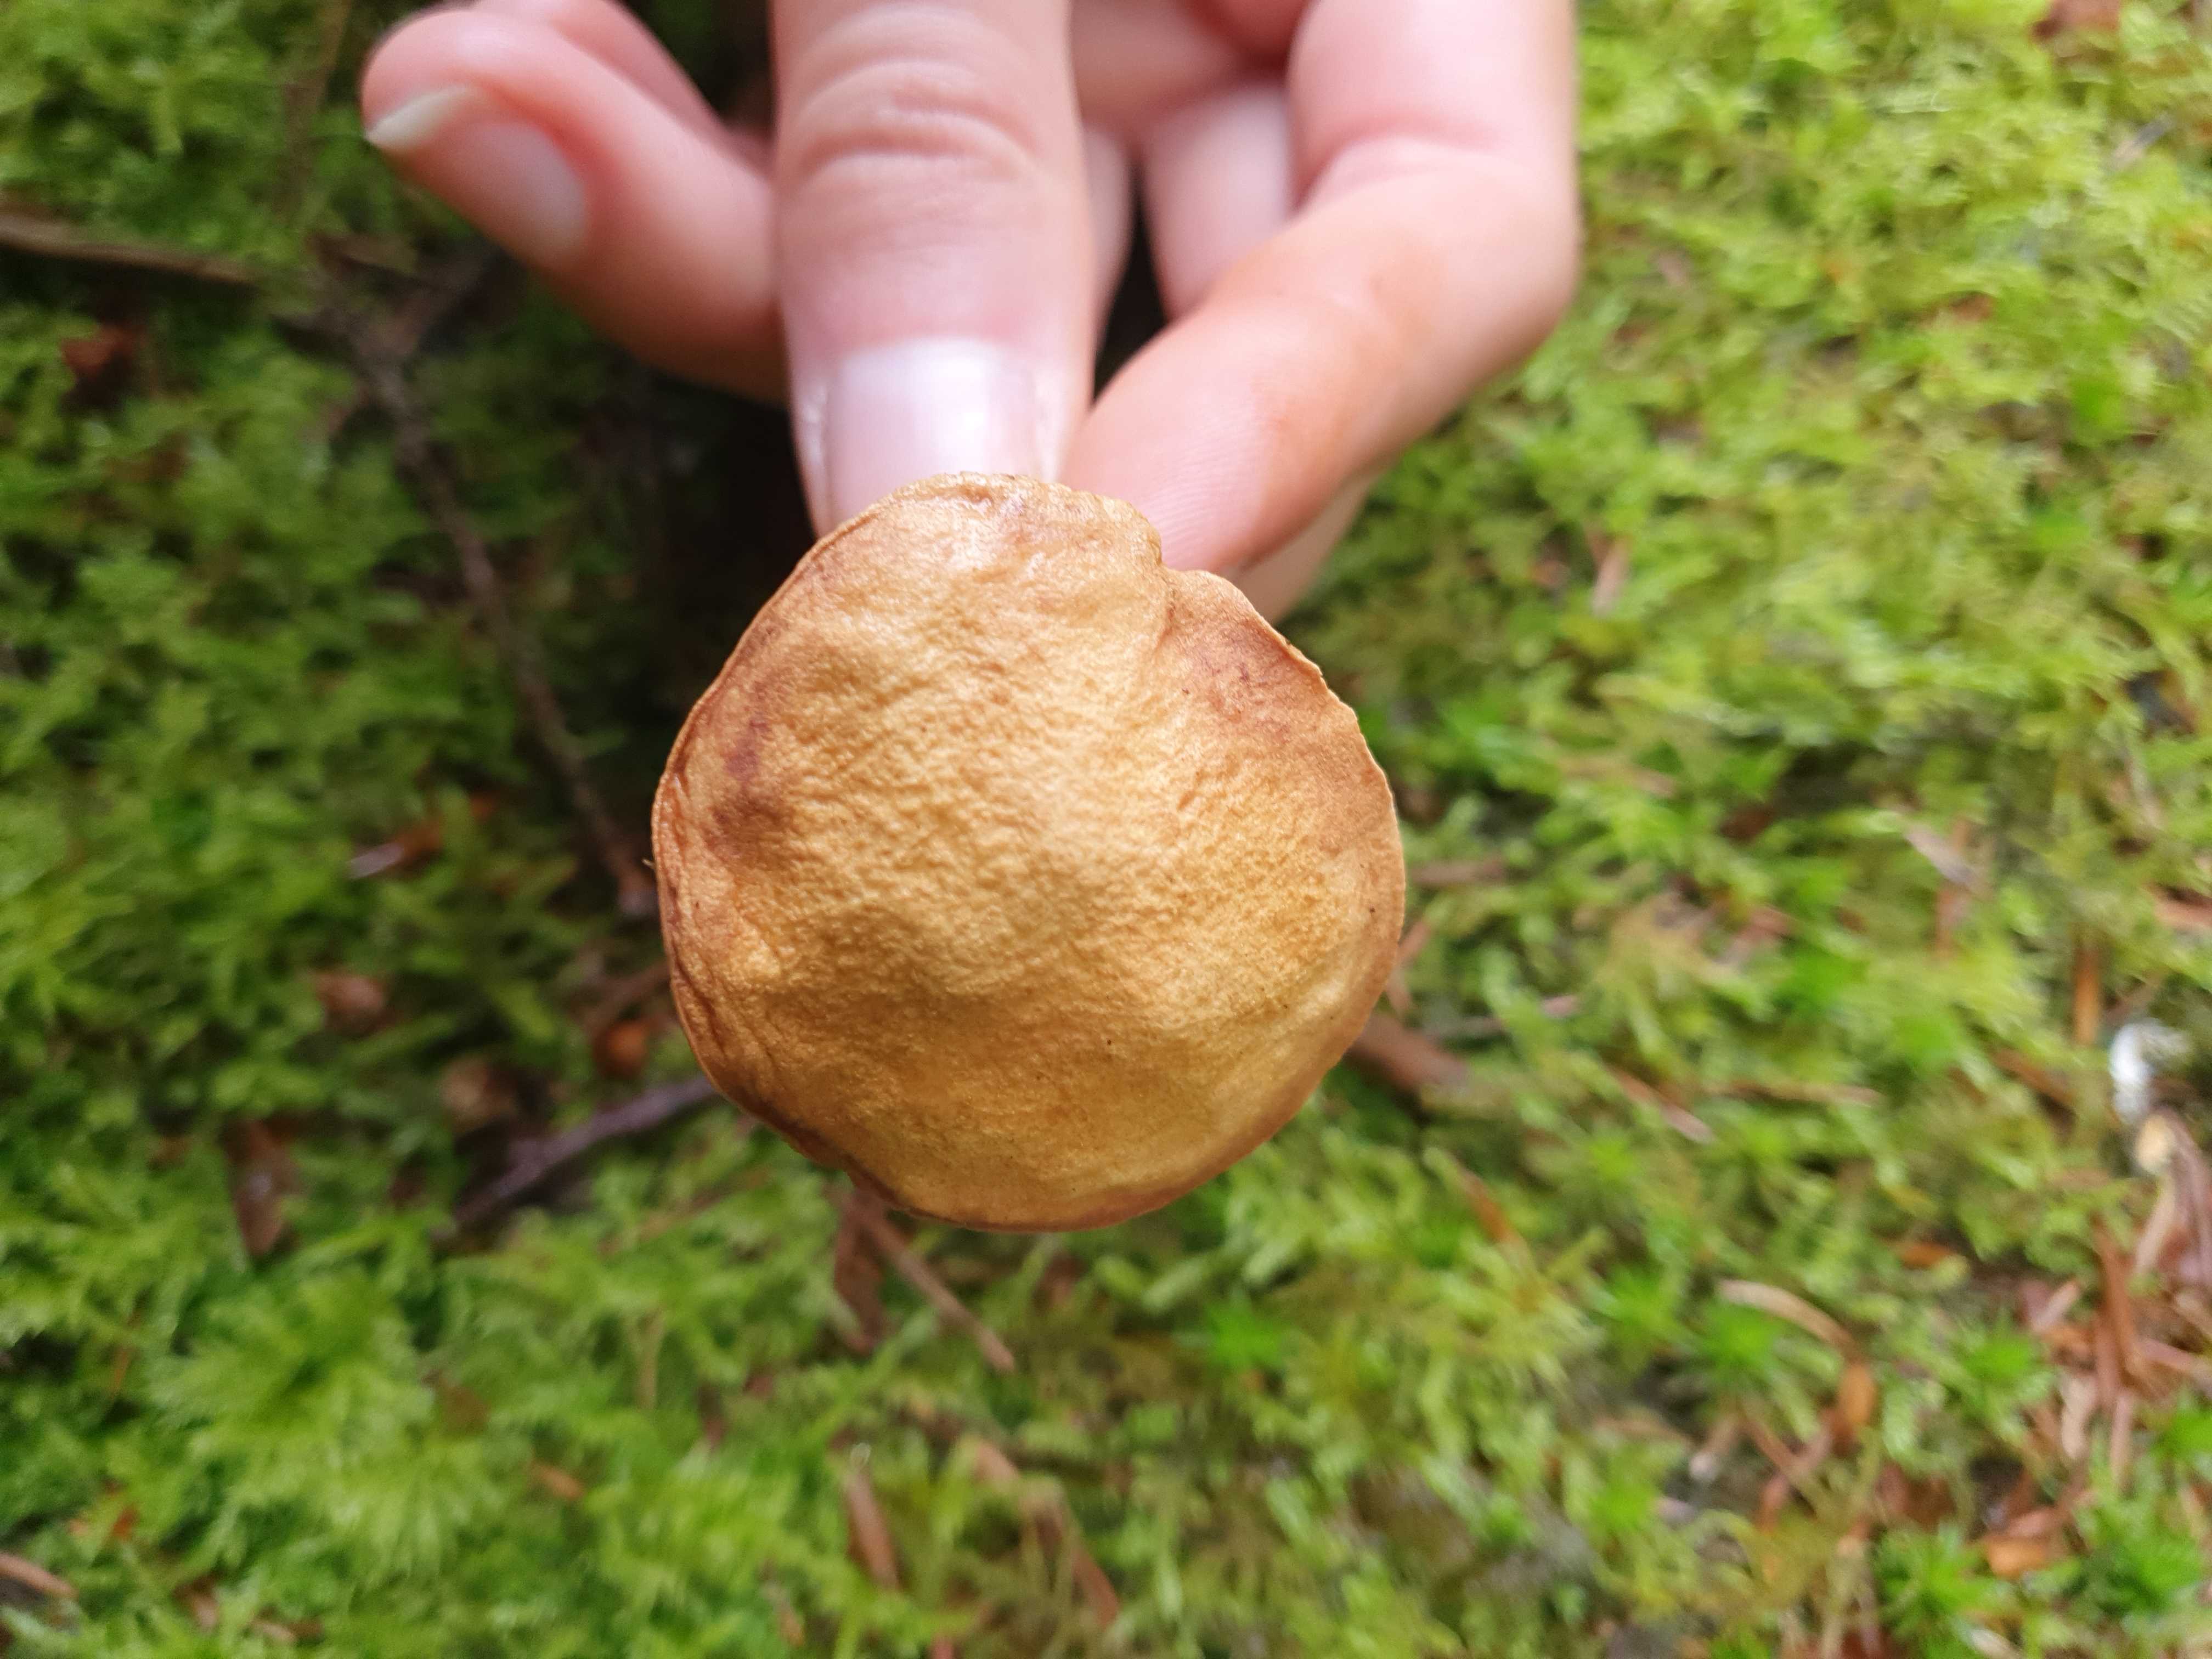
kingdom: Fungi
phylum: Basidiomycota
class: Agaricomycetes
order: Boletales
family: Boletaceae
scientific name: Boletaceae
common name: rørhatfamilien
